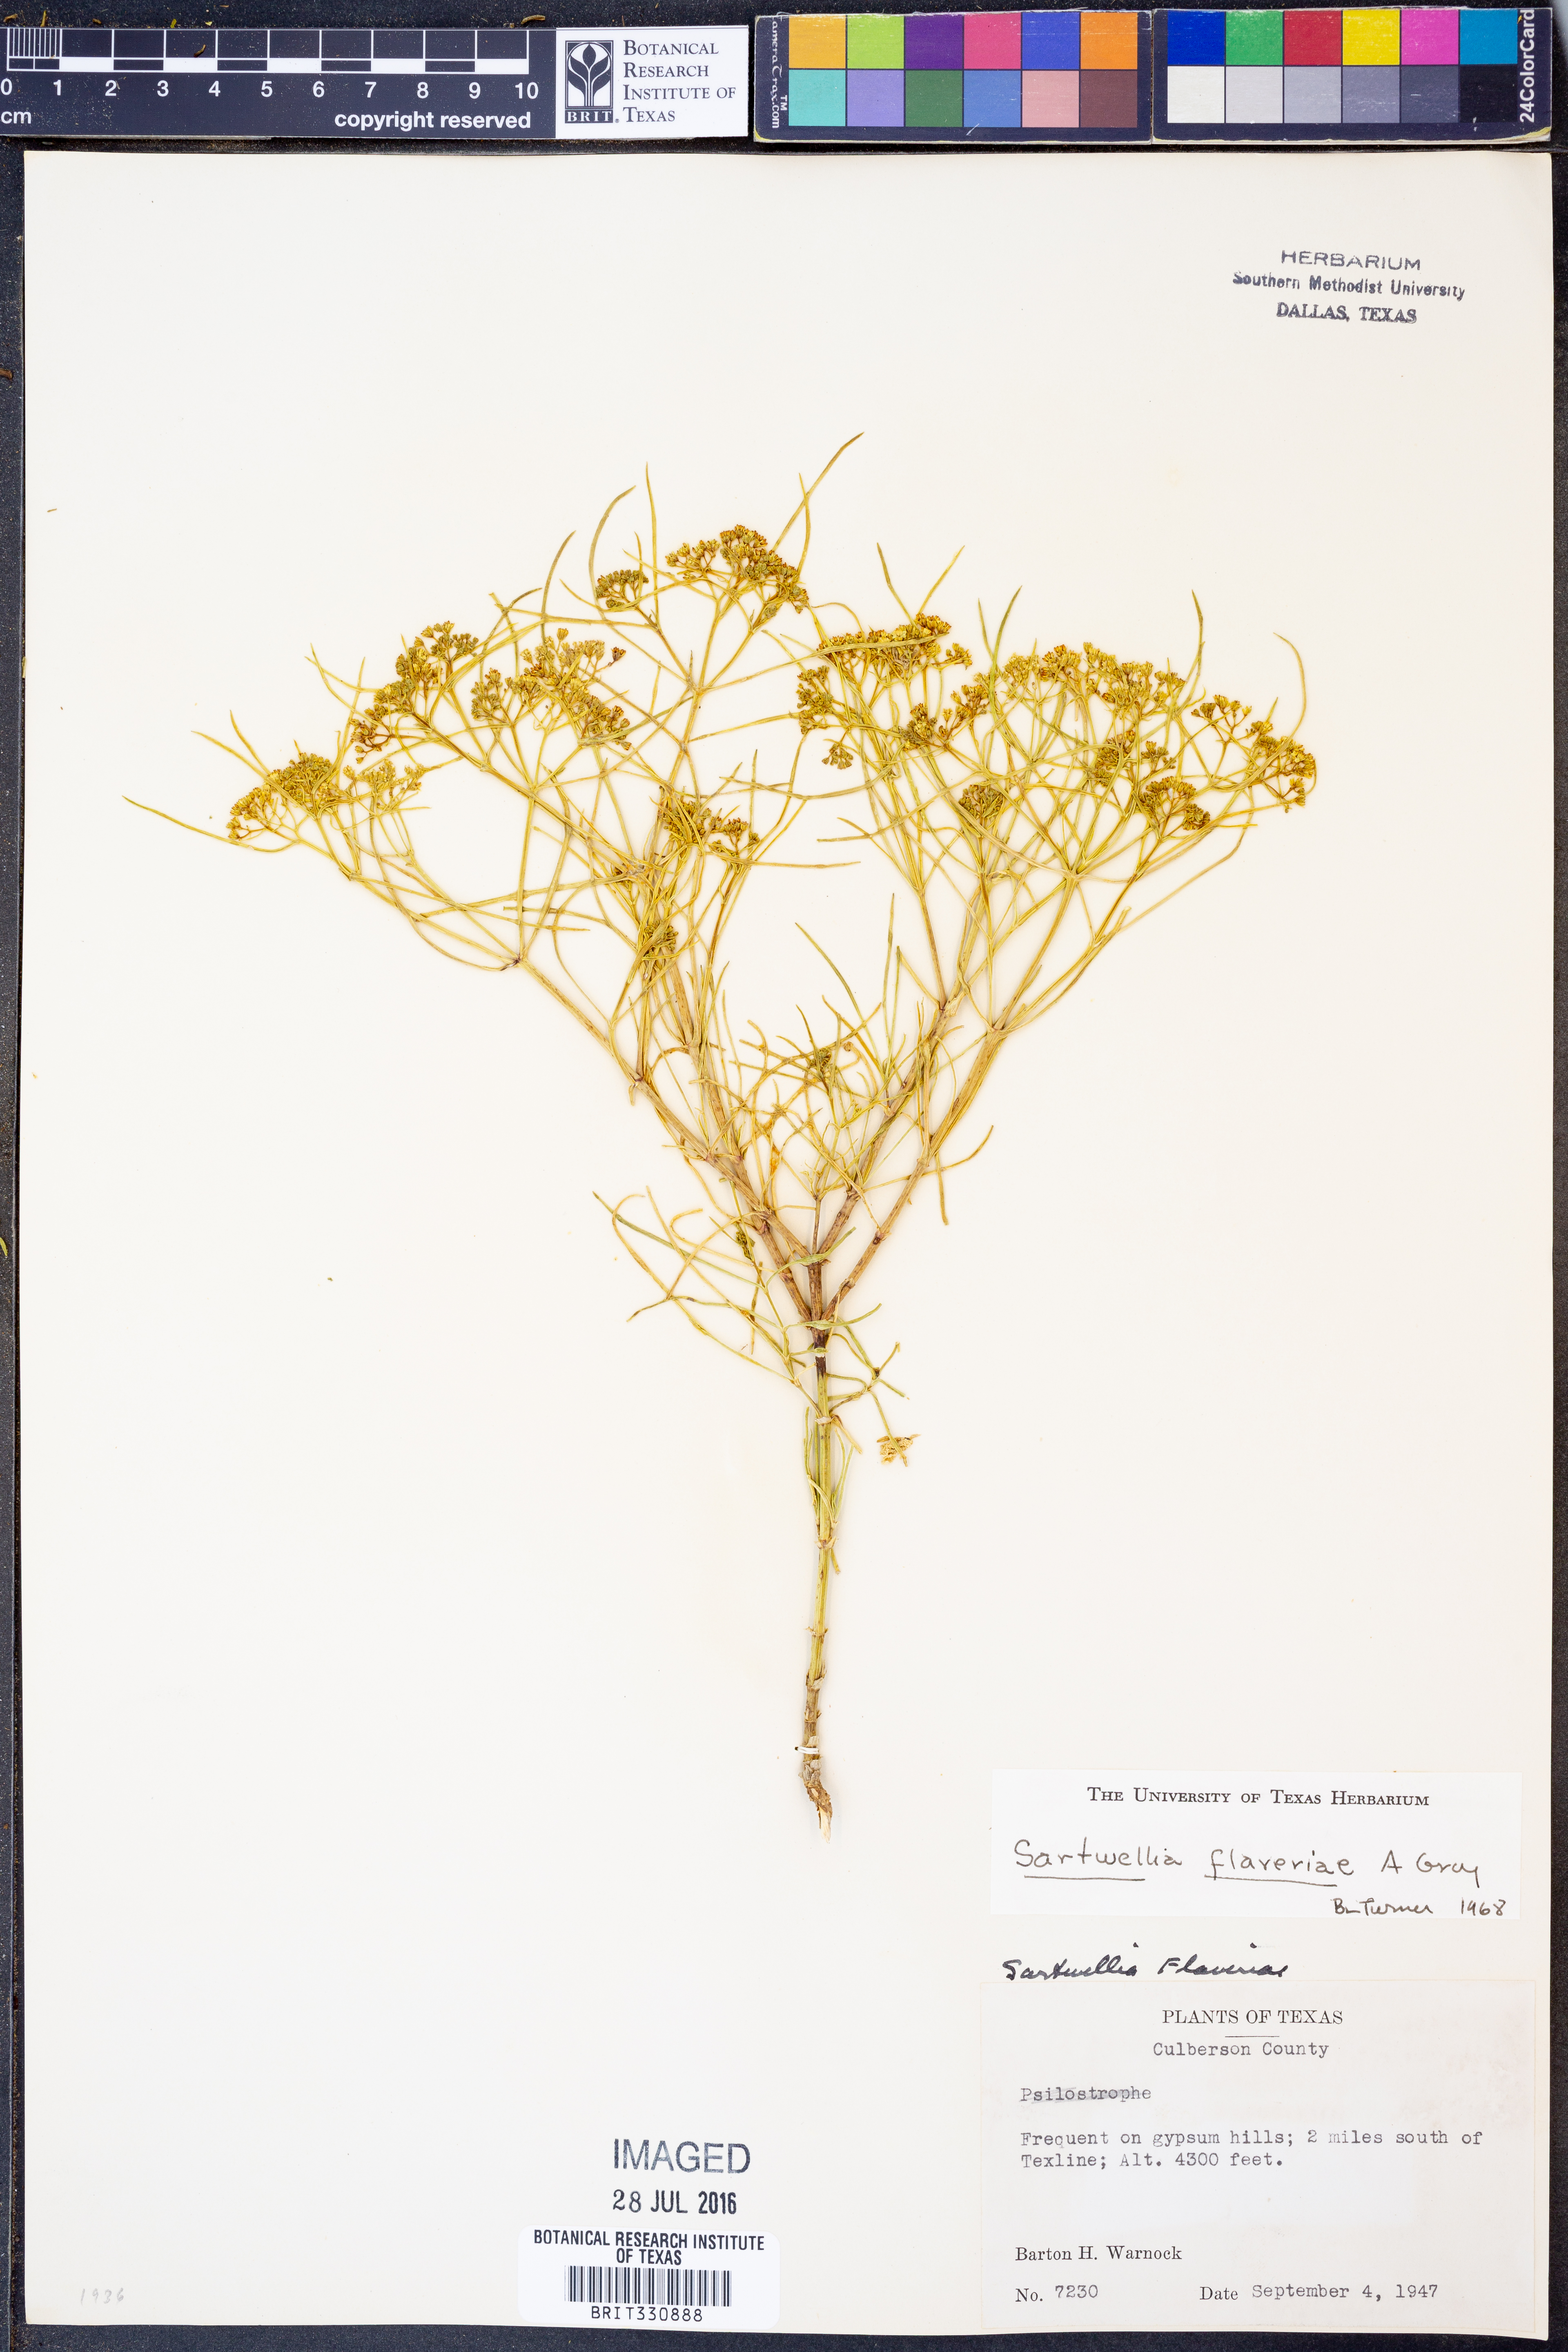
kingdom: Plantae
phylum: Tracheophyta
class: Magnoliopsida
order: Asterales
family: Asteraceae
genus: Sartwellia
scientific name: Sartwellia flaveriae
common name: Sartwellia
